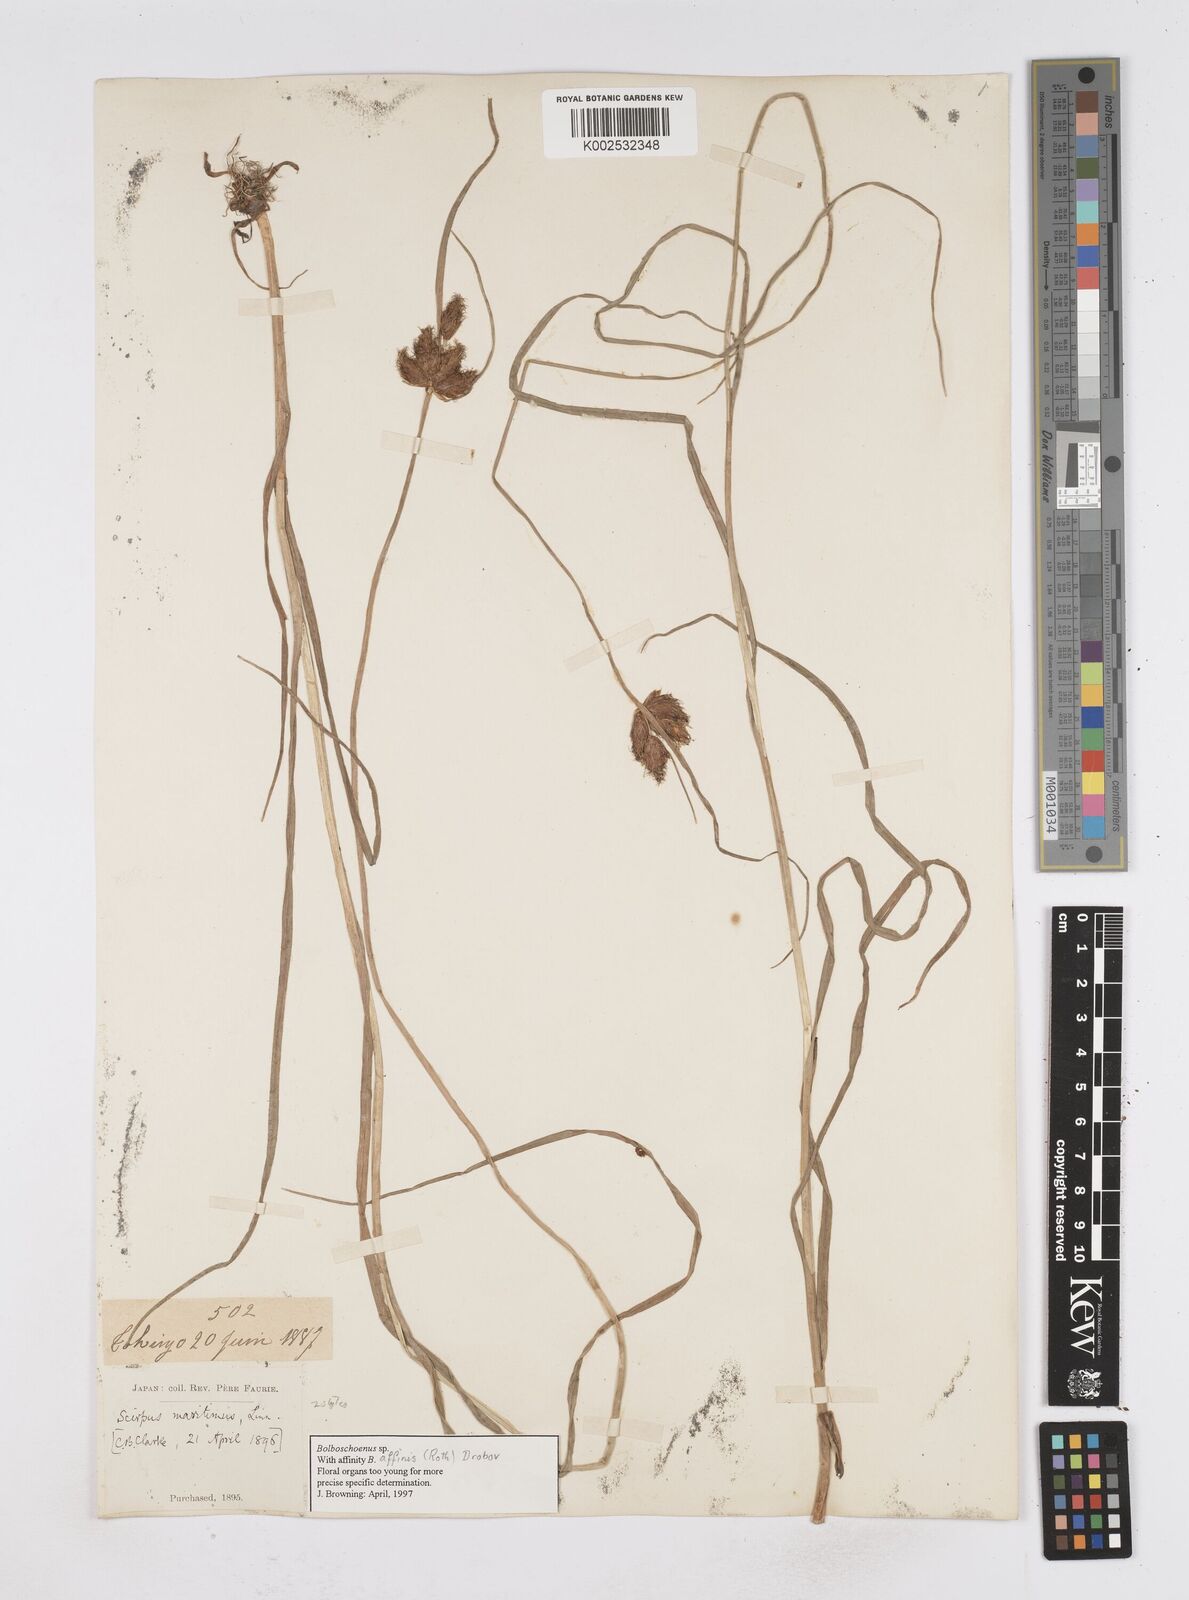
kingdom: Plantae
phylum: Tracheophyta
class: Liliopsida
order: Poales
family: Cyperaceae
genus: Bolboschoenus
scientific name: Bolboschoenus maritimus
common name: Sea club-rush
